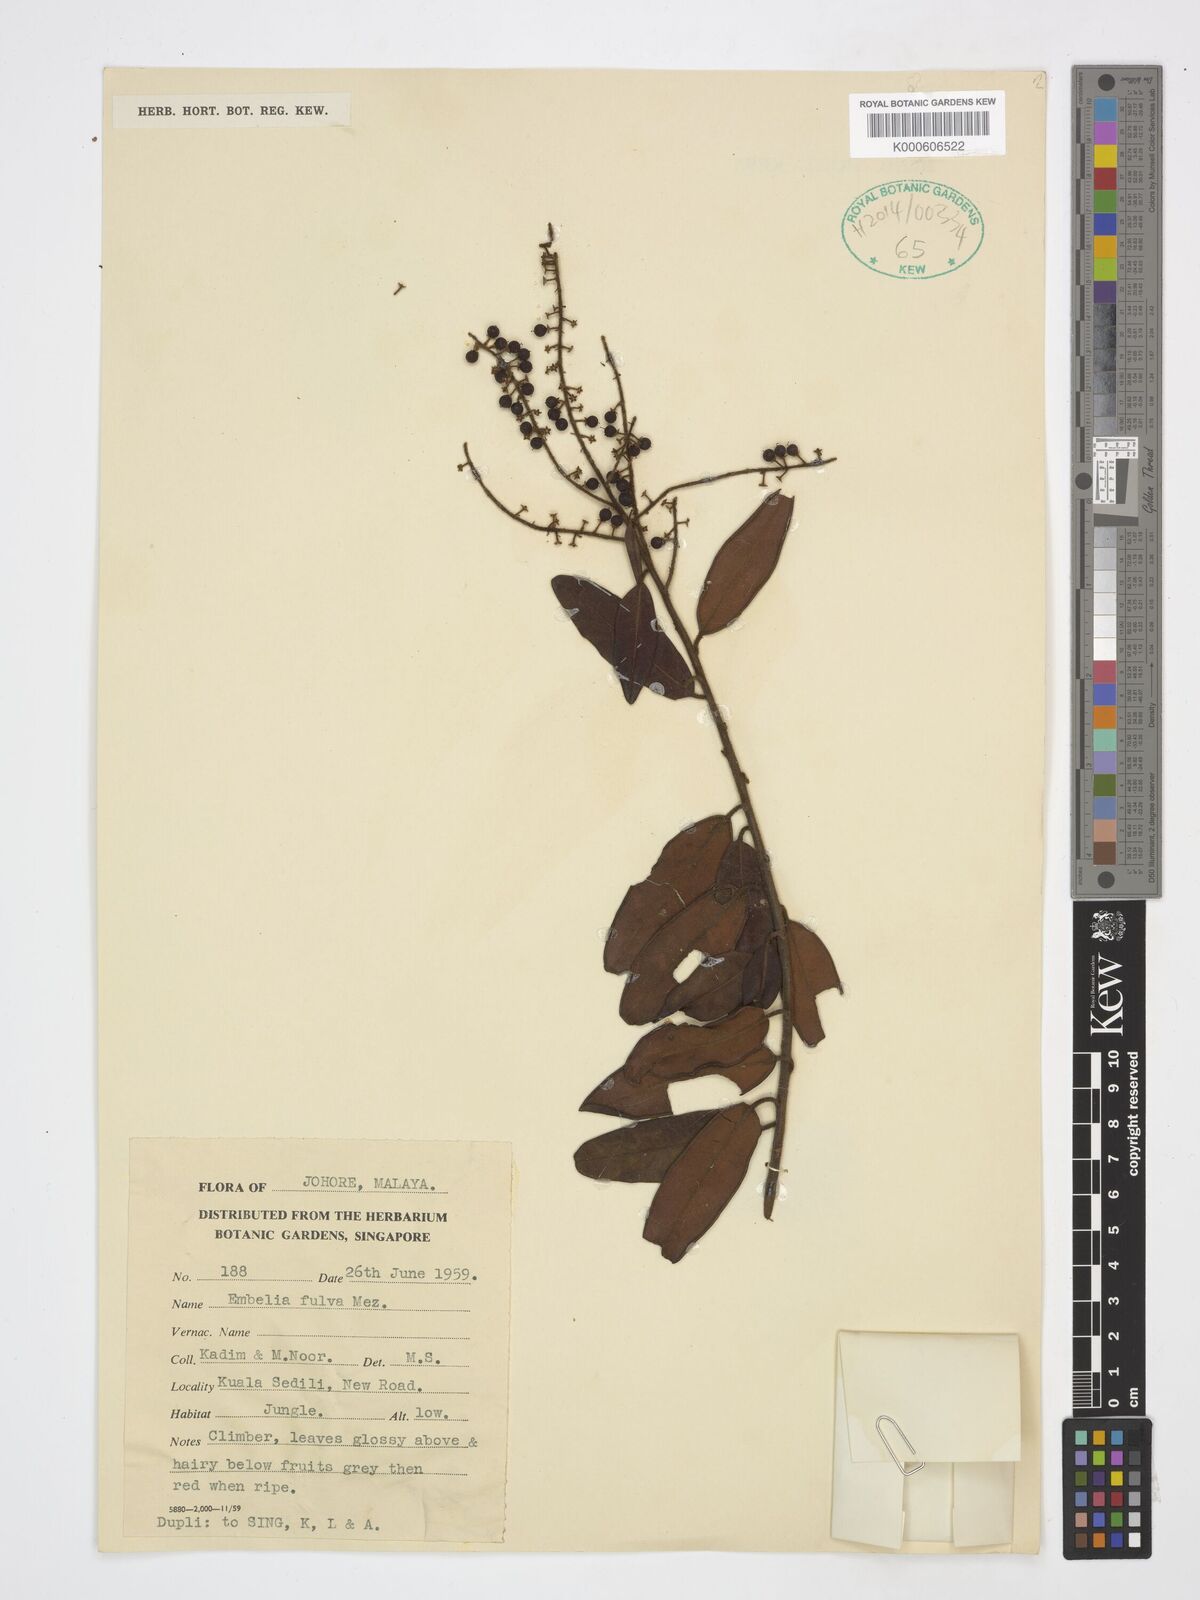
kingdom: Plantae
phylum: Tracheophyta
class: Magnoliopsida
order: Ericales
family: Primulaceae
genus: Grenacheria
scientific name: Grenacheria fulva
